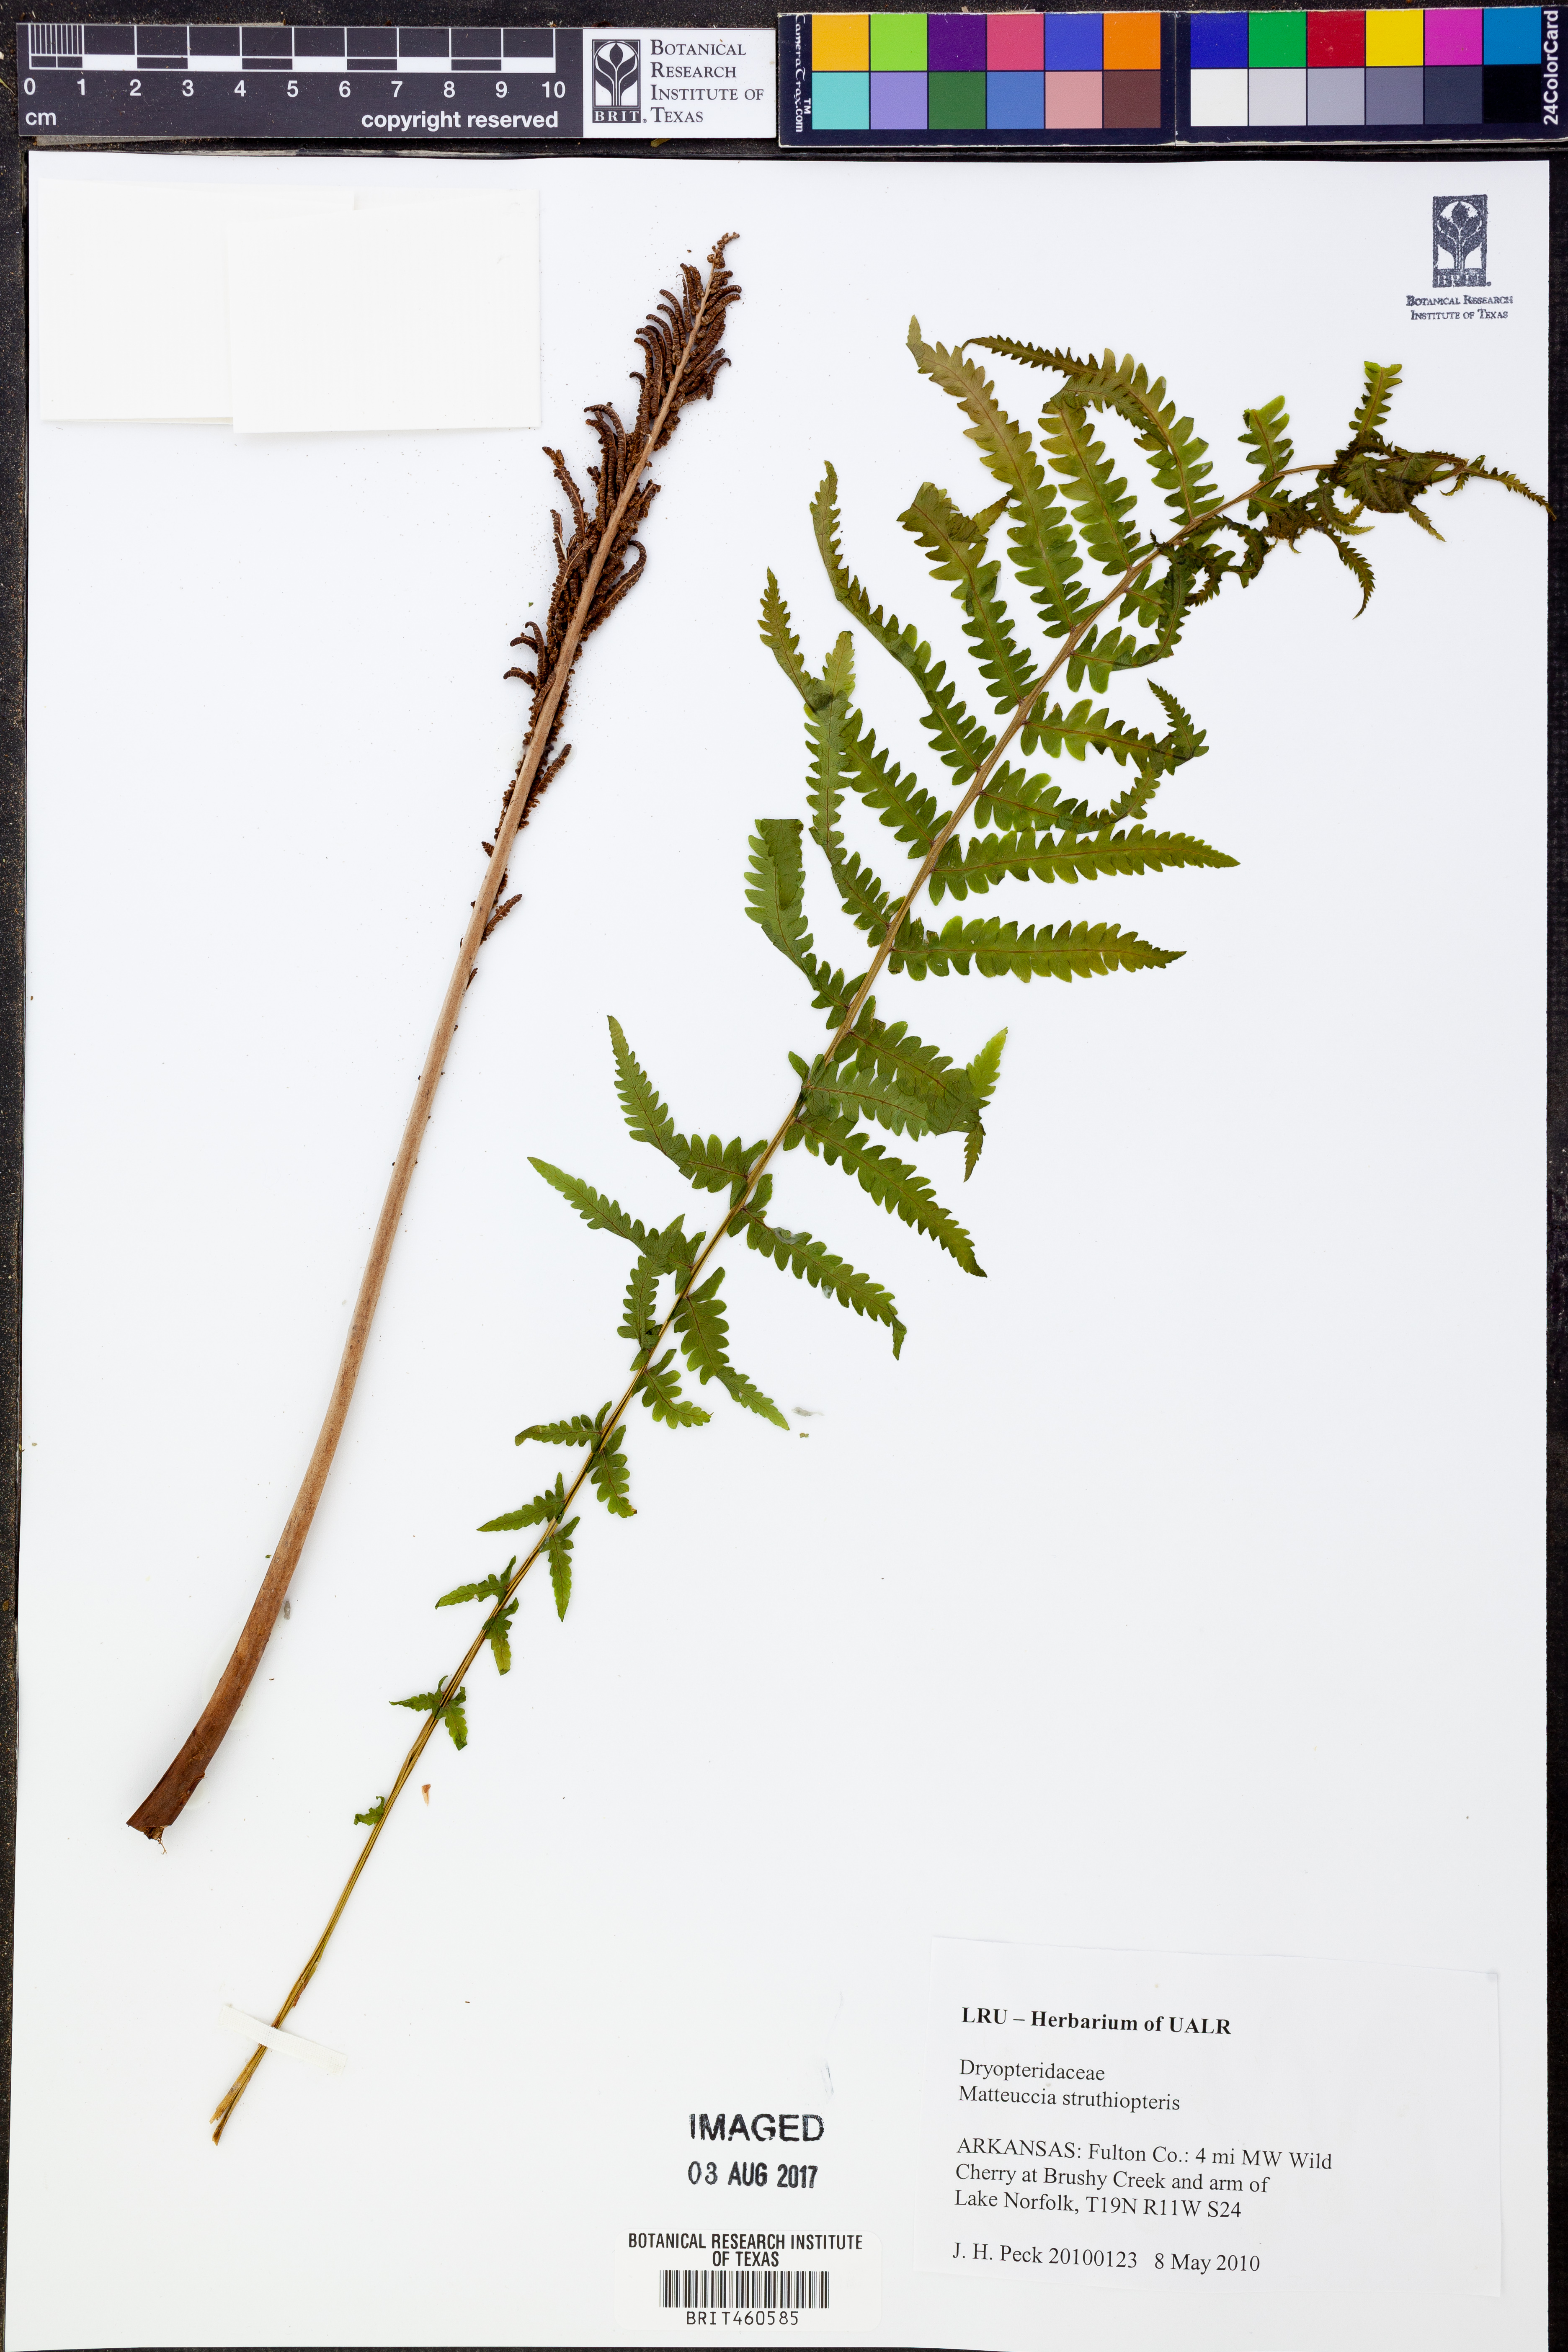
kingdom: Plantae
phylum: Tracheophyta
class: Polypodiopsida
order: Polypodiales
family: Onocleaceae
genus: Matteuccia
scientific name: Matteuccia struthiopteris
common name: Ostrich fern
